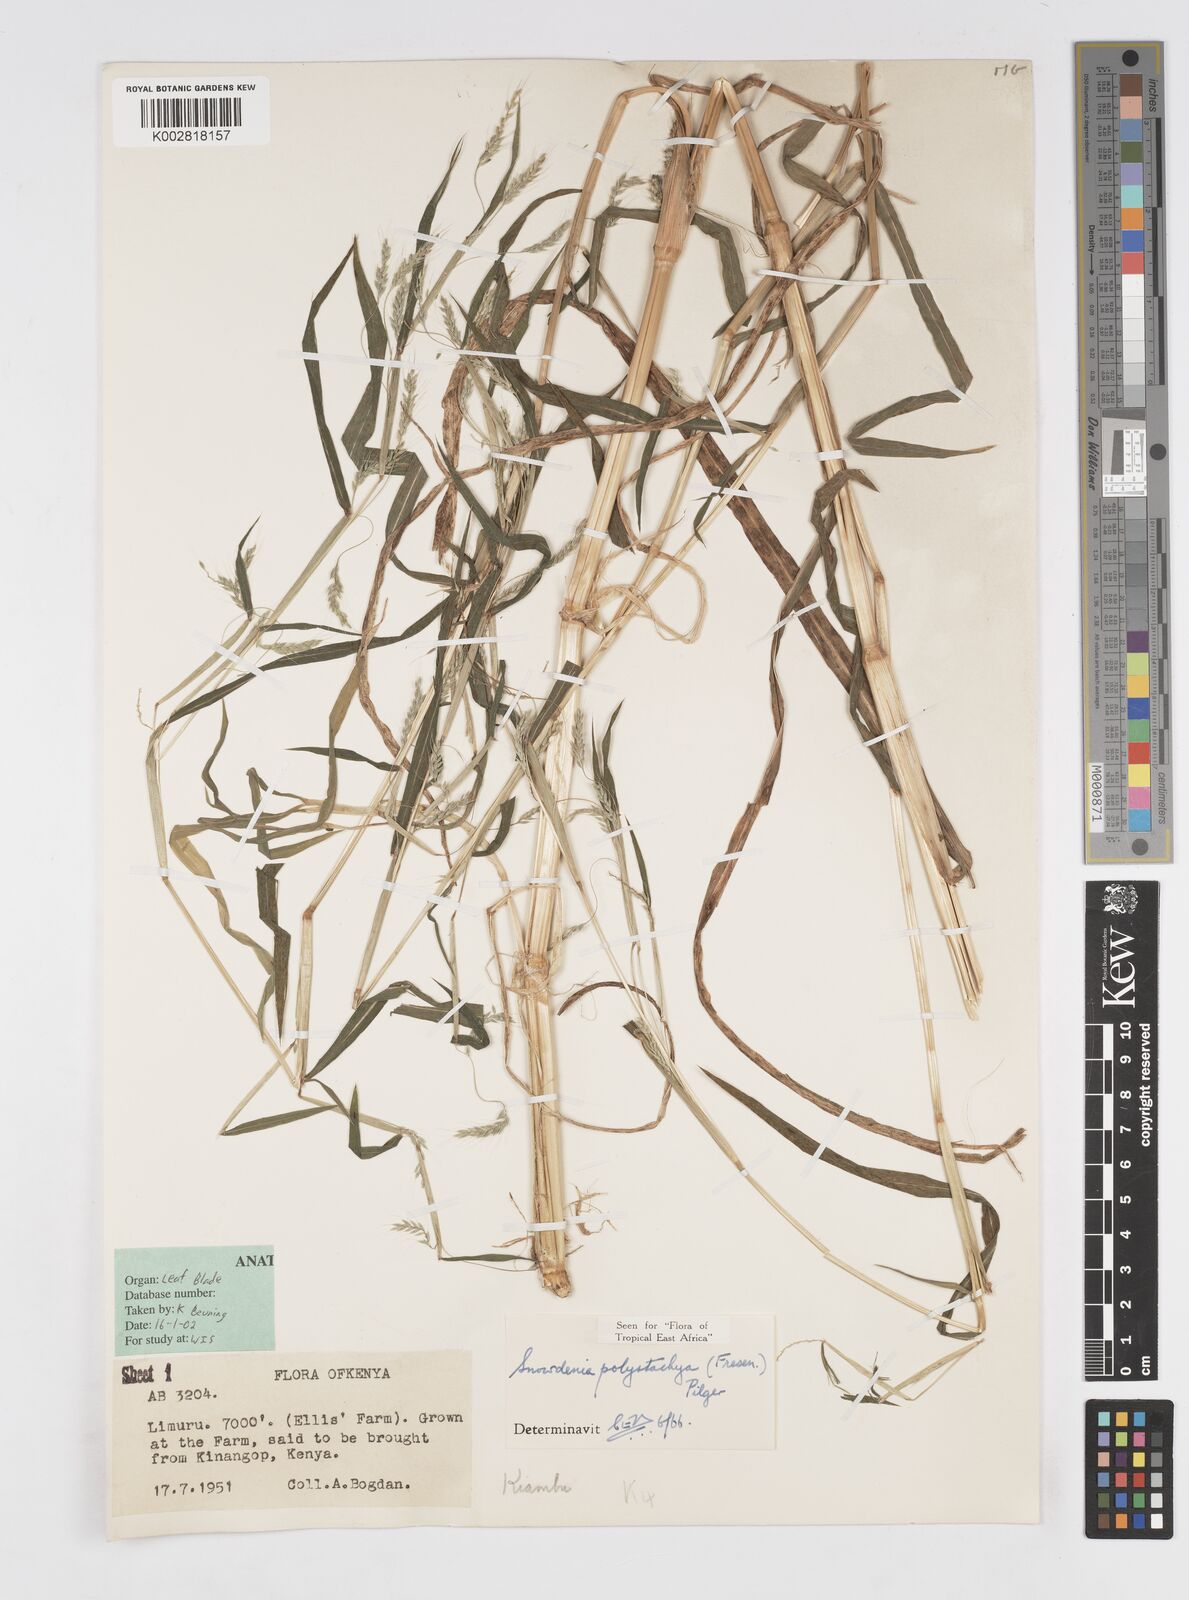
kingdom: Plantae
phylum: Tracheophyta
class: Liliopsida
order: Poales
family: Poaceae
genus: Snowdenia
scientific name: Snowdenia polystachya
